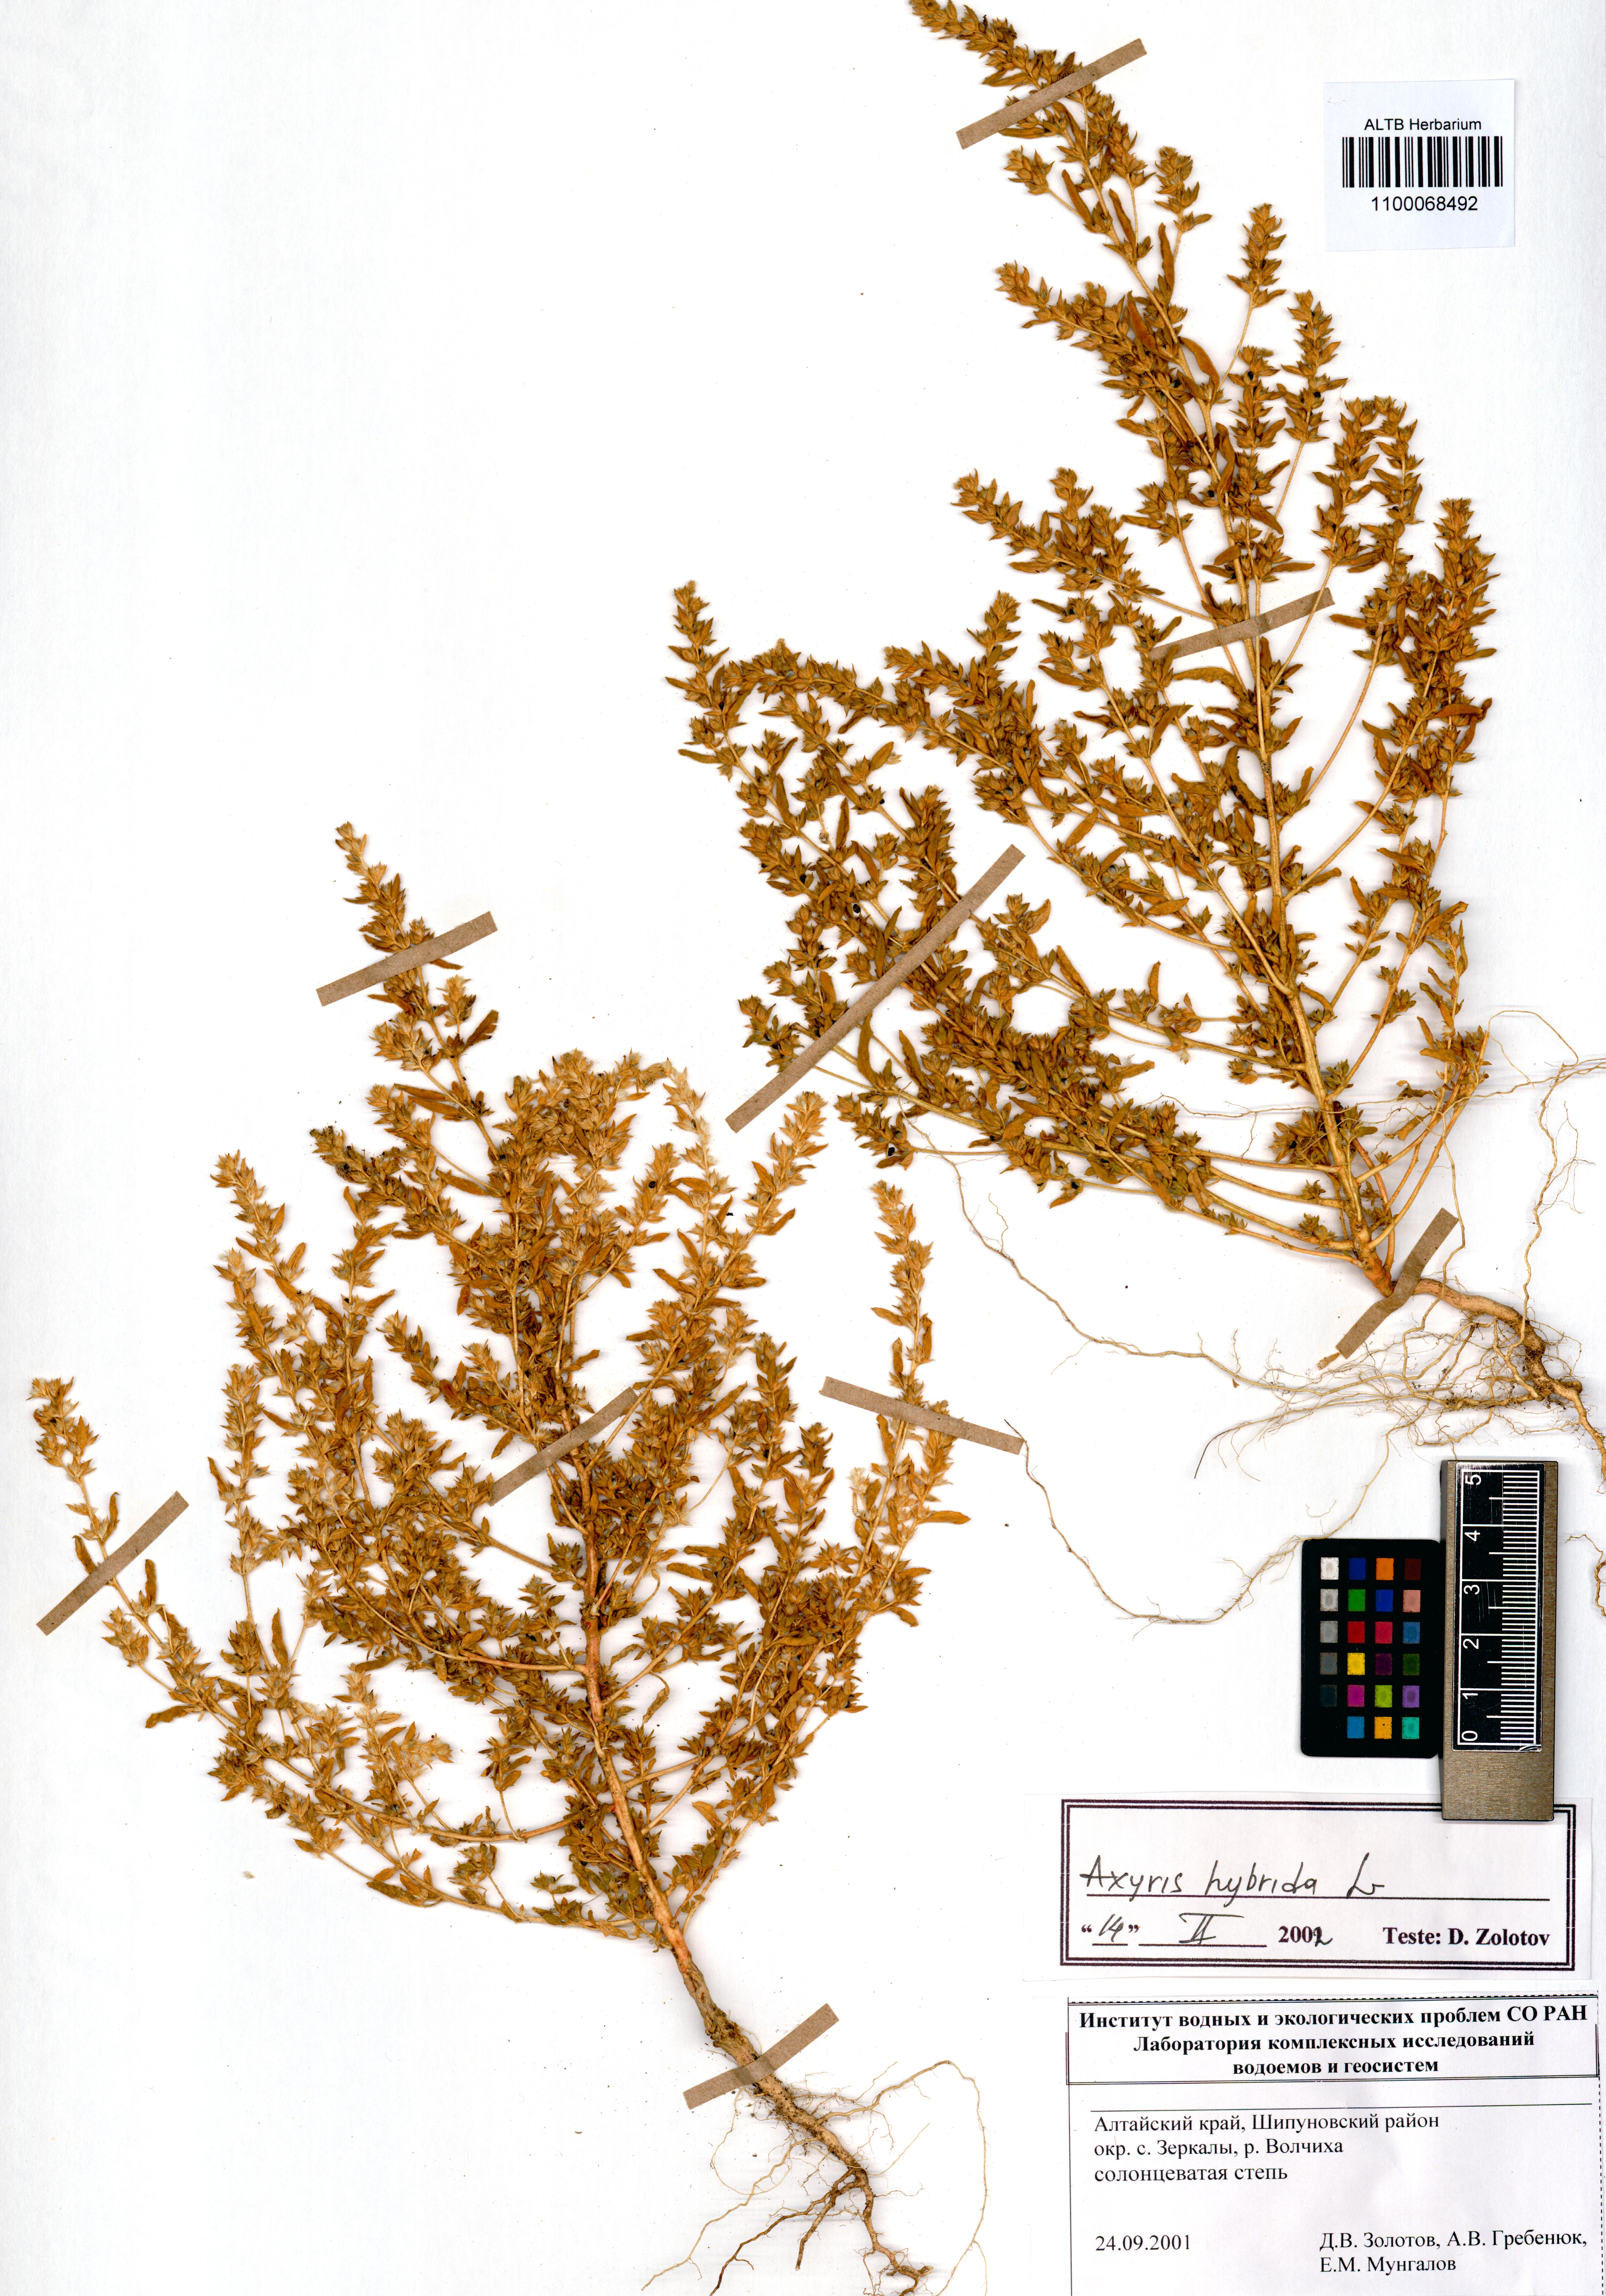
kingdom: Plantae
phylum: Tracheophyta
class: Magnoliopsida
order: Caryophyllales
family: Amaranthaceae
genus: Axyris
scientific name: Axyris hybrida
